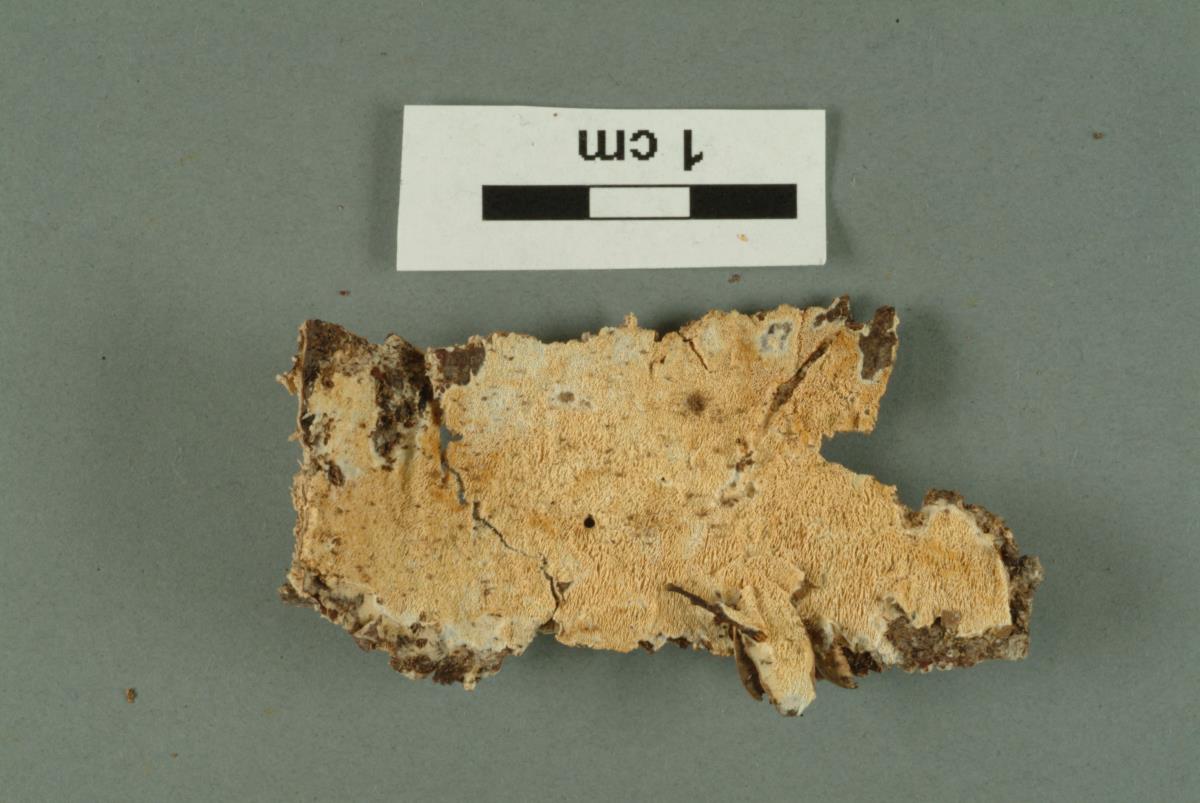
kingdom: Fungi
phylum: Basidiomycota
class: Agaricomycetes
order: Polyporales
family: Incrustoporiaceae
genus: Skeletocutis
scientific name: Skeletocutis nivea
